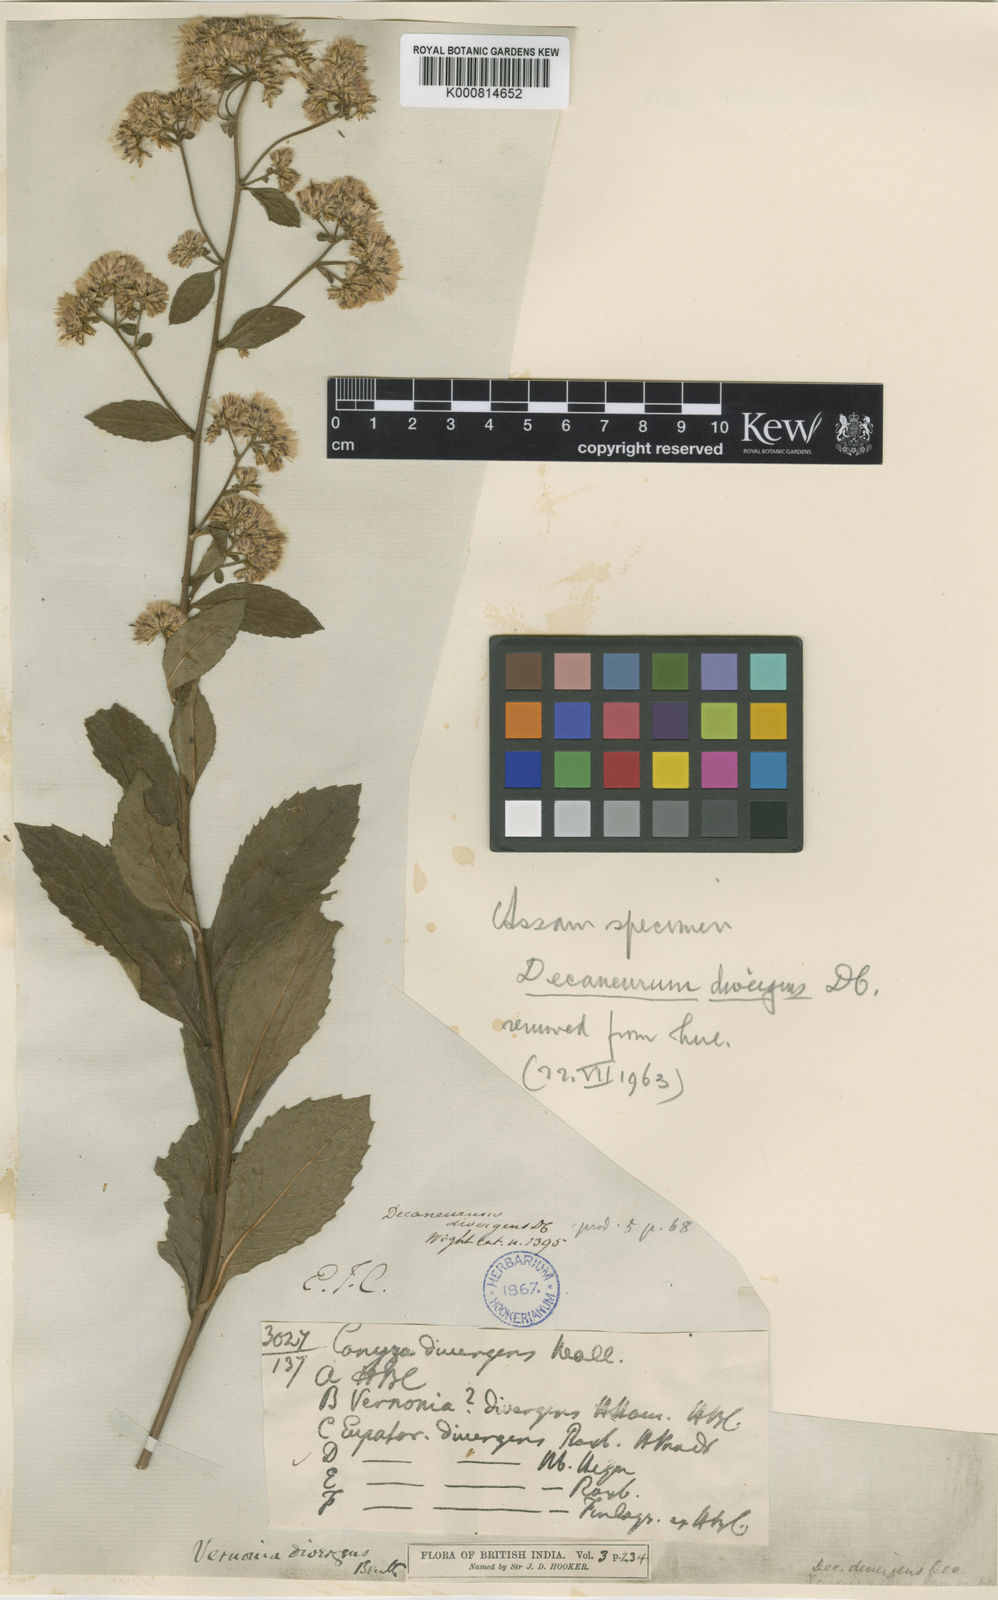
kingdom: Plantae
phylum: Tracheophyta
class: Magnoliopsida
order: Asterales
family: Asteraceae
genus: Vernonia
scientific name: Vernonia
